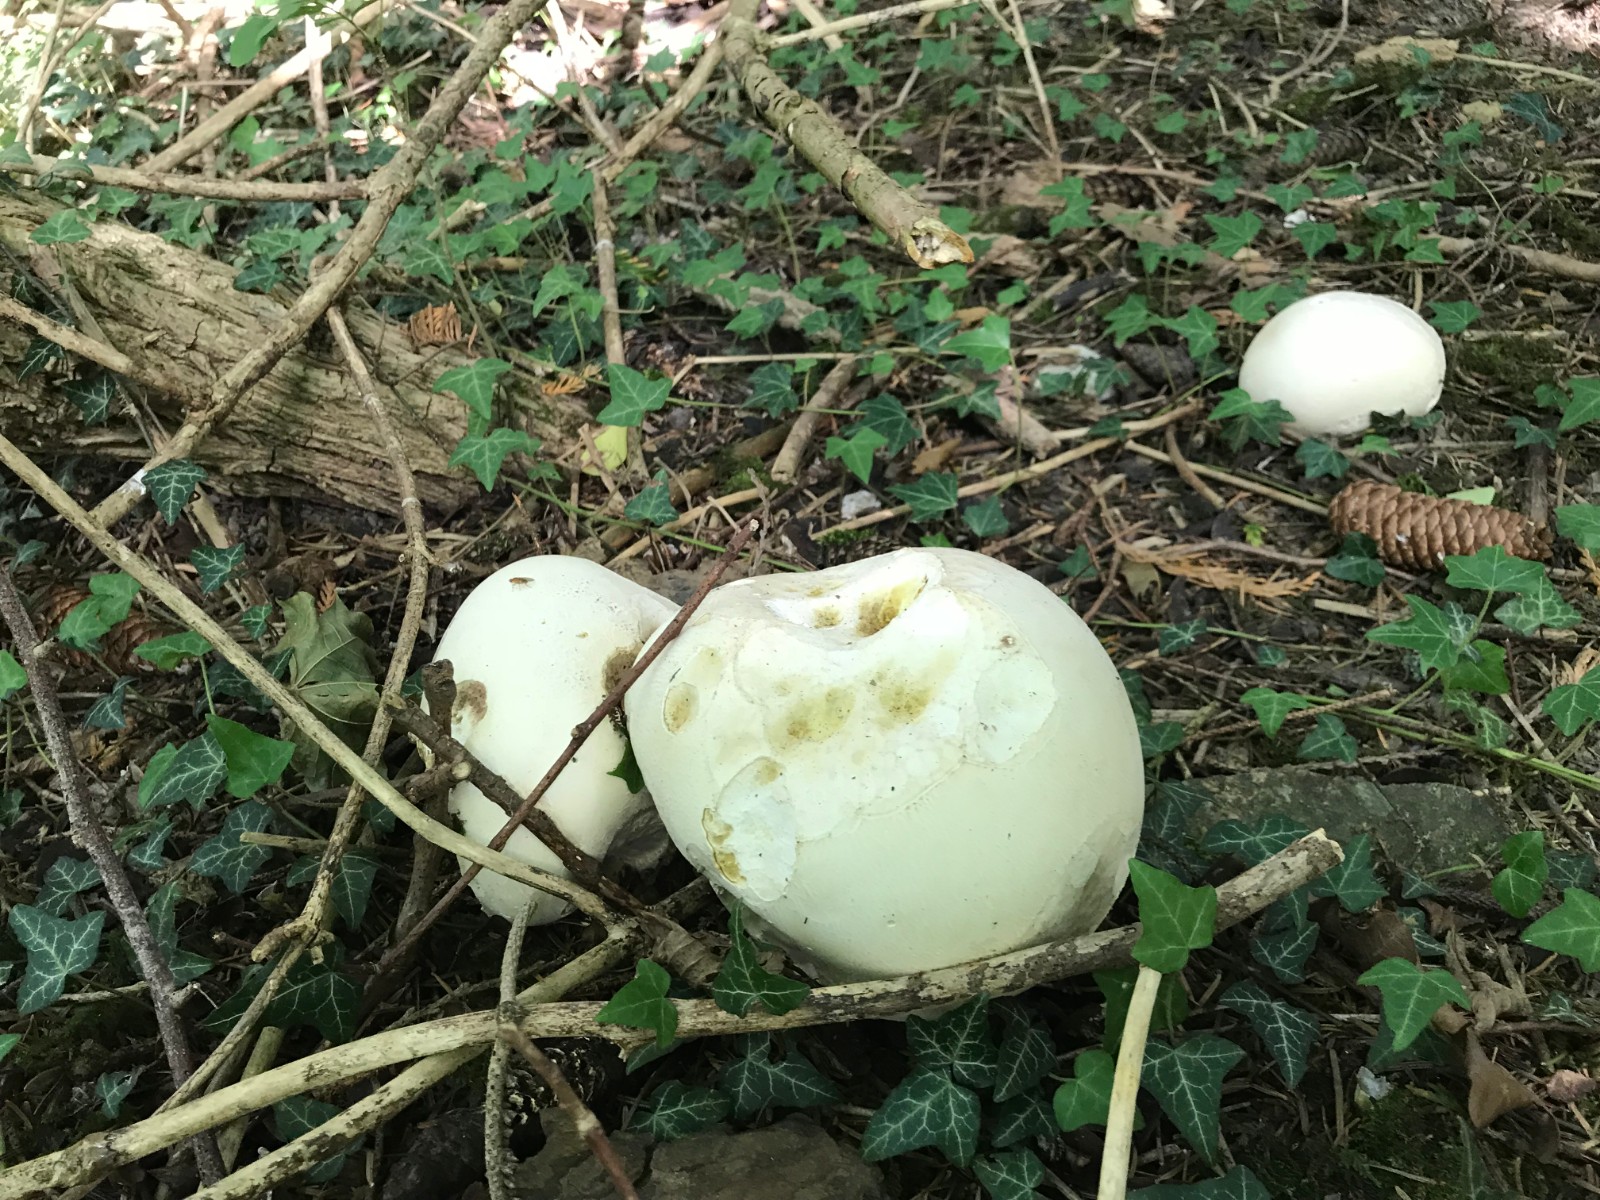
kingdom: Fungi
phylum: Basidiomycota
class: Agaricomycetes
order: Agaricales
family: Lycoperdaceae
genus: Calvatia
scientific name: Calvatia gigantea
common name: kæmpestøvbold
